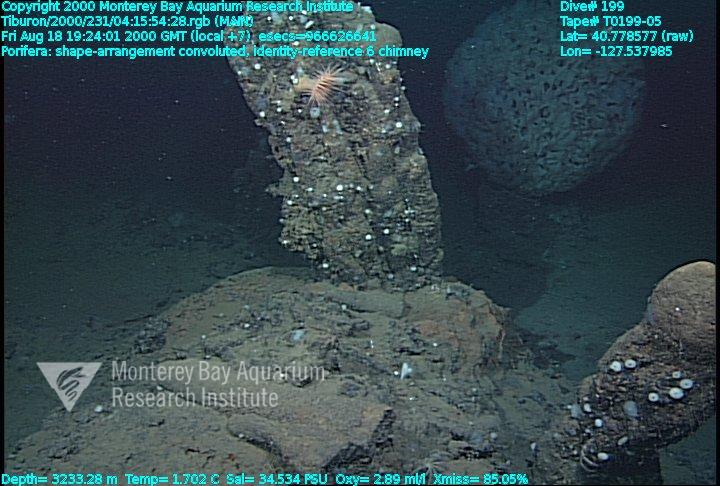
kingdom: Animalia
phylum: Porifera
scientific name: Porifera
